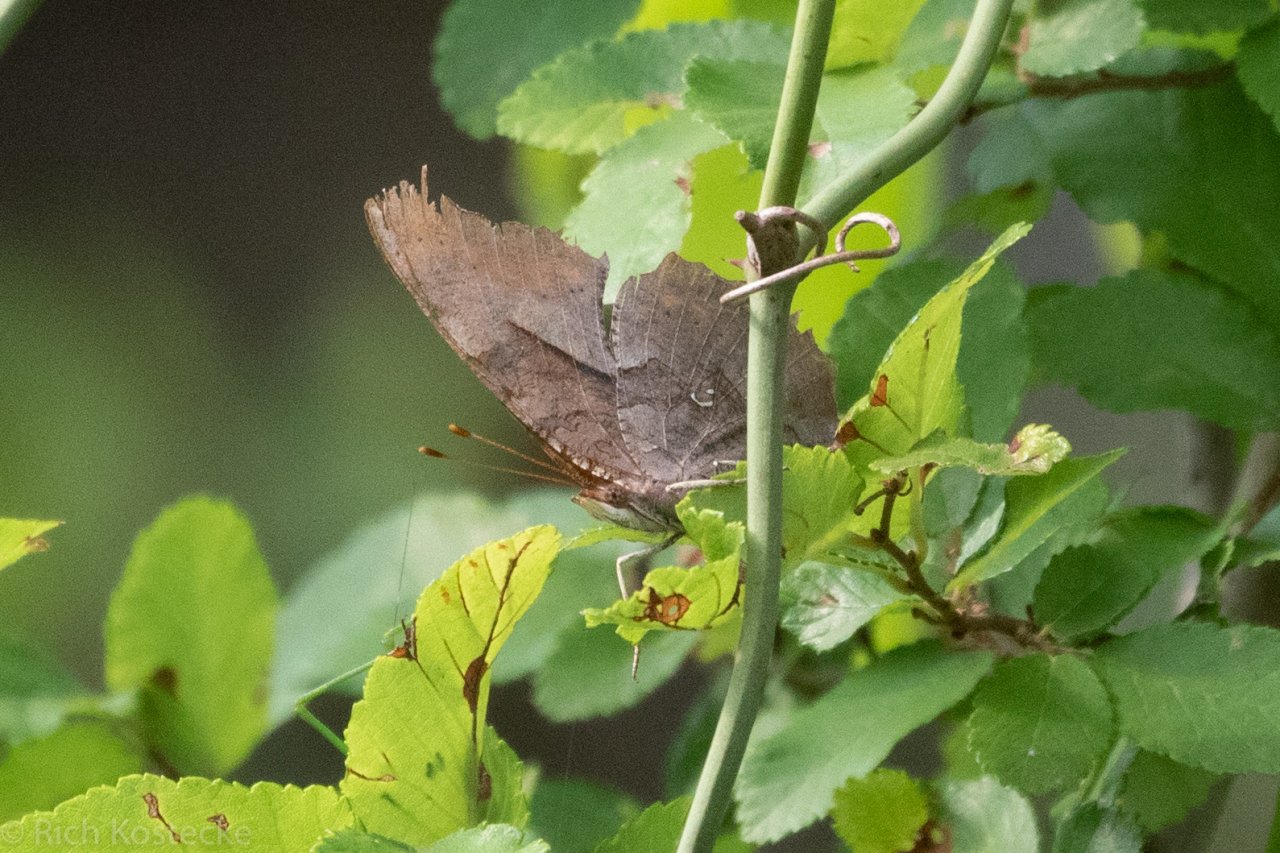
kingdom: Animalia
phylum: Arthropoda
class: Insecta
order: Lepidoptera
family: Nymphalidae
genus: Polygonia
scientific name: Polygonia interrogationis
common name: Question Mark
